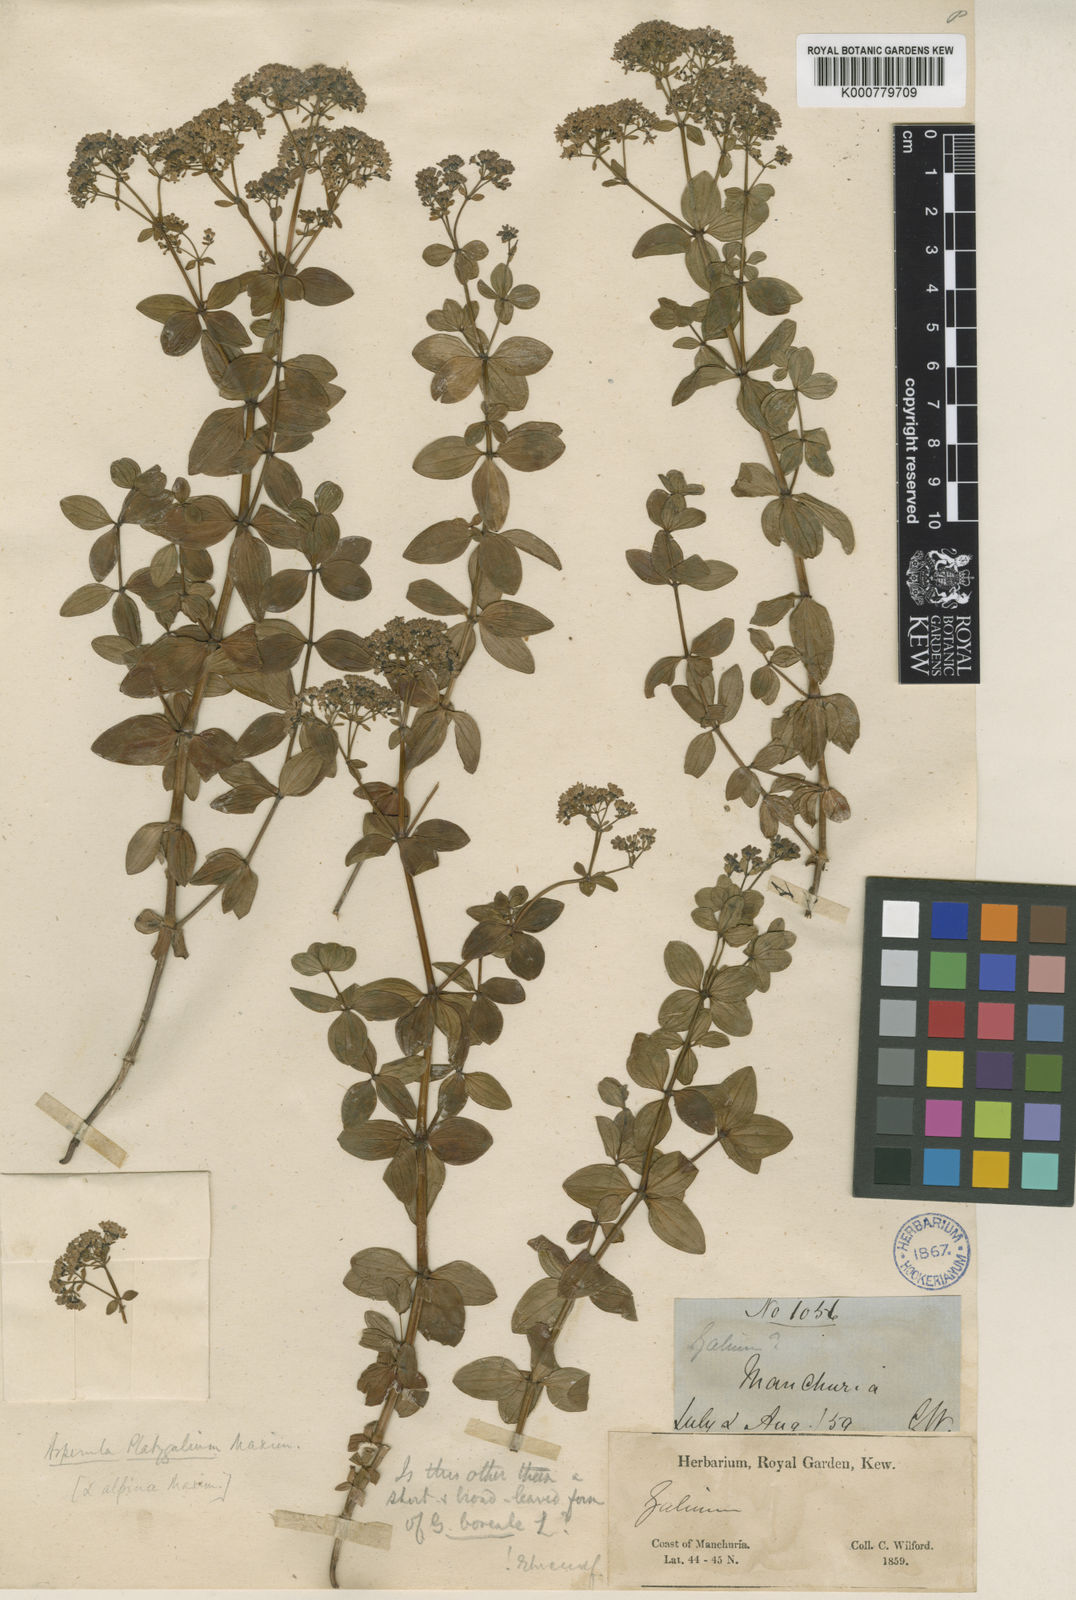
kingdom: Plantae
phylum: Tracheophyta
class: Magnoliopsida
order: Gentianales
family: Rubiaceae
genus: Galium
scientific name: Galium platygalium
